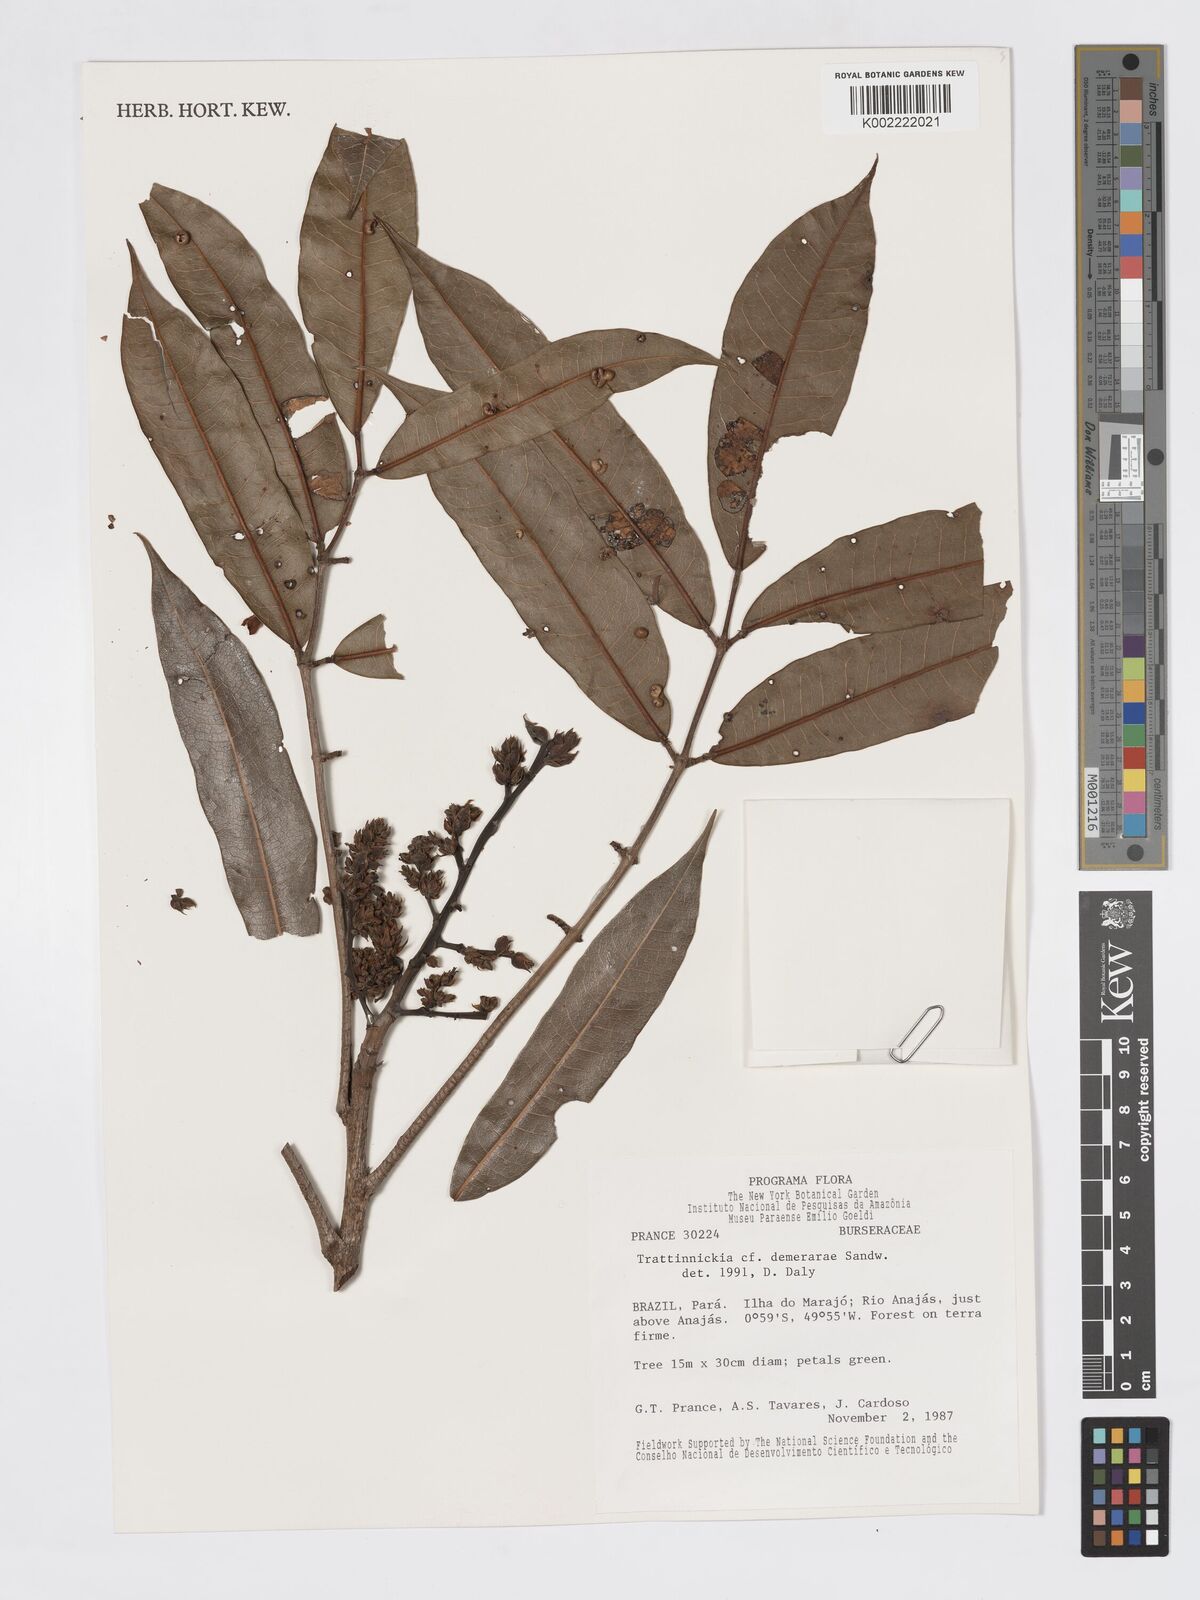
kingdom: Plantae
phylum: Tracheophyta
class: Magnoliopsida
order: Sapindales
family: Burseraceae
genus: Trattinnickia
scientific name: Trattinnickia demerarae
